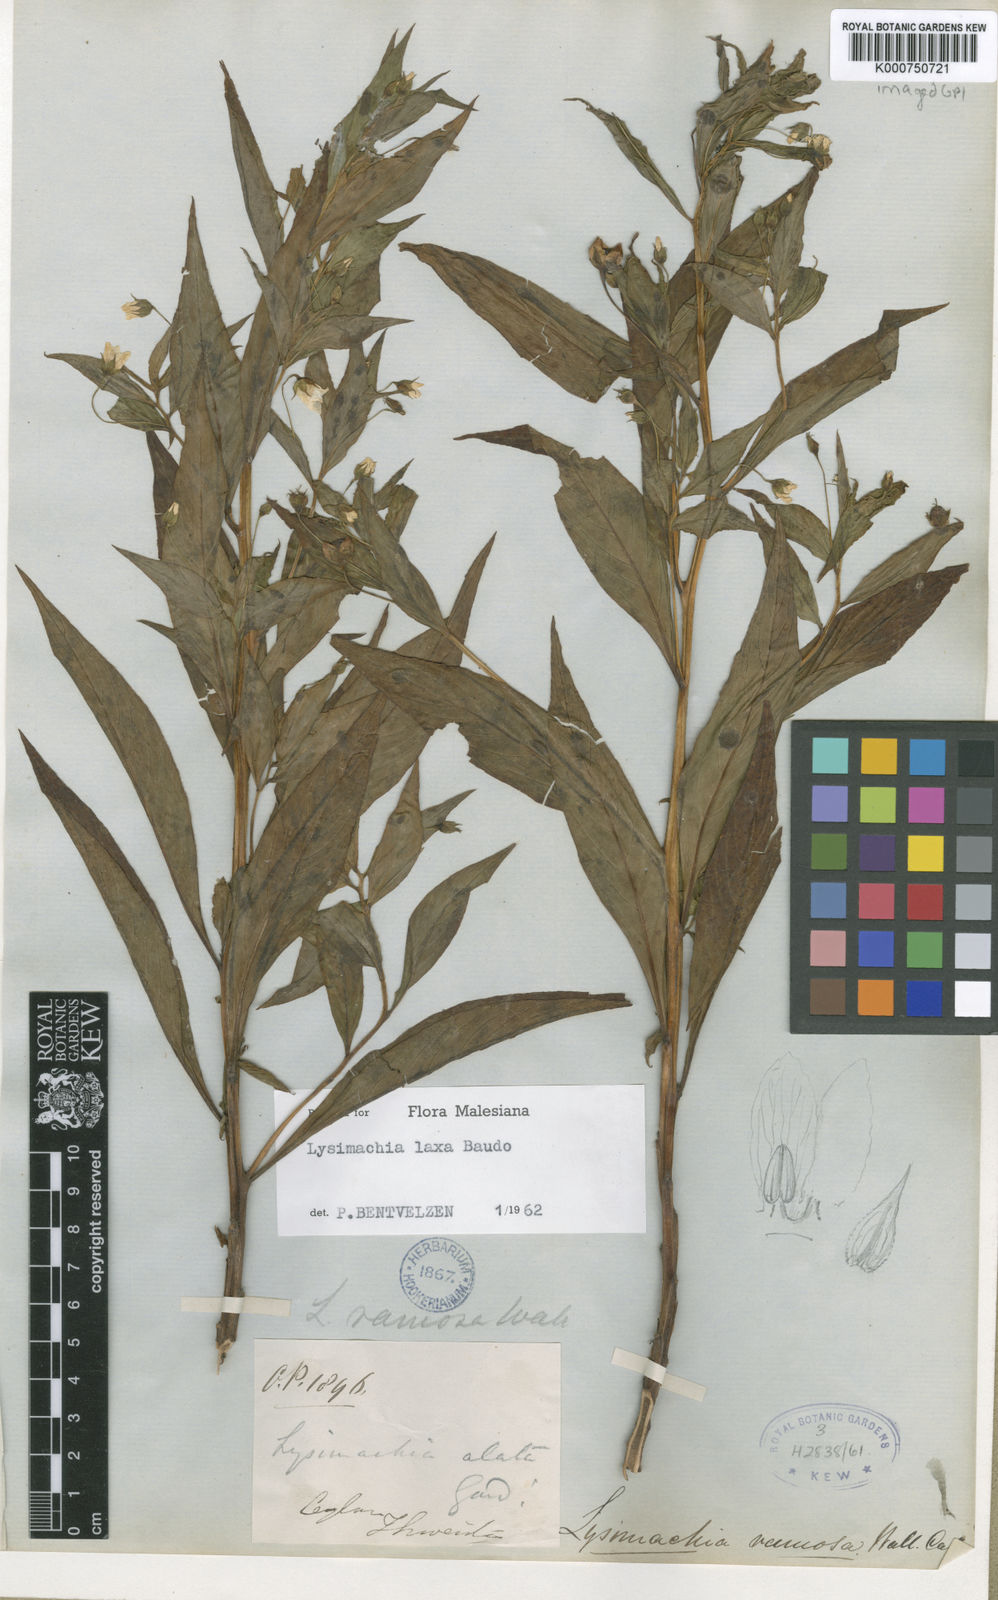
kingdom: Plantae
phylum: Tracheophyta
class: Magnoliopsida
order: Ericales
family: Primulaceae
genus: Lysimachia
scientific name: Lysimachia terrestris
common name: Lake loosestrife
